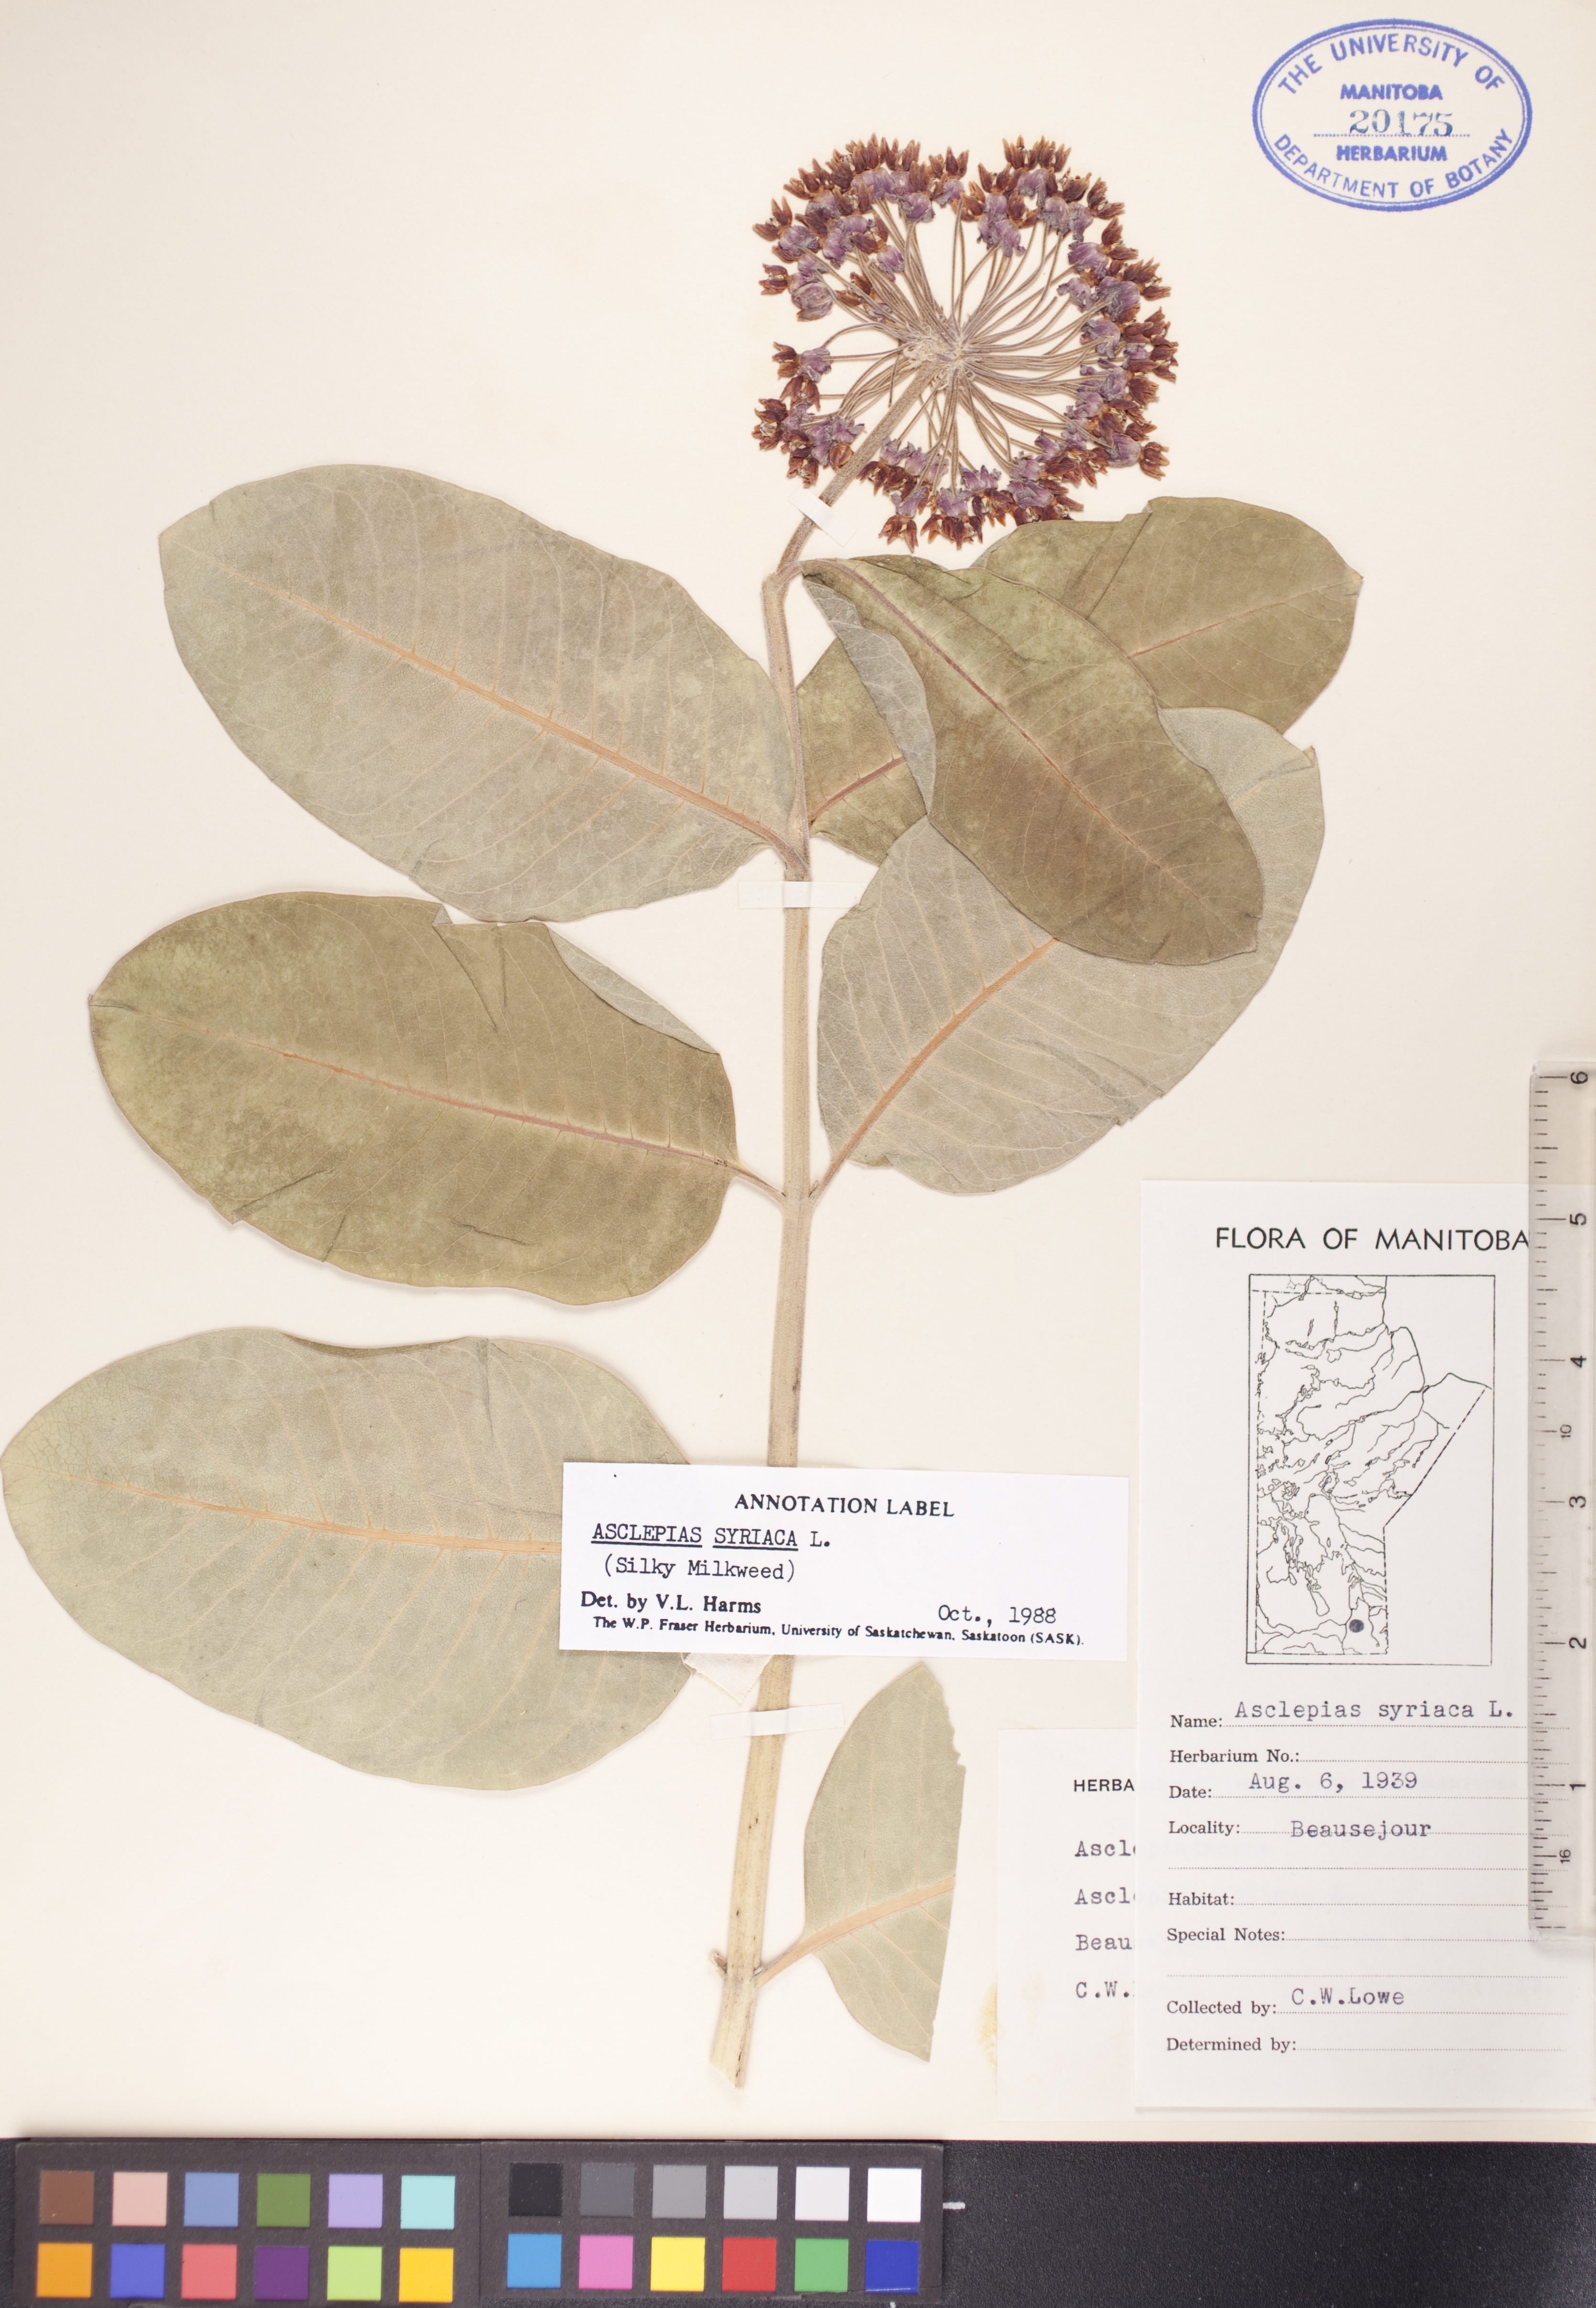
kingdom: Plantae
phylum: Tracheophyta
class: Magnoliopsida
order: Gentianales
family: Apocynaceae
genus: Asclepias
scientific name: Asclepias syriaca
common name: Common milkweed
